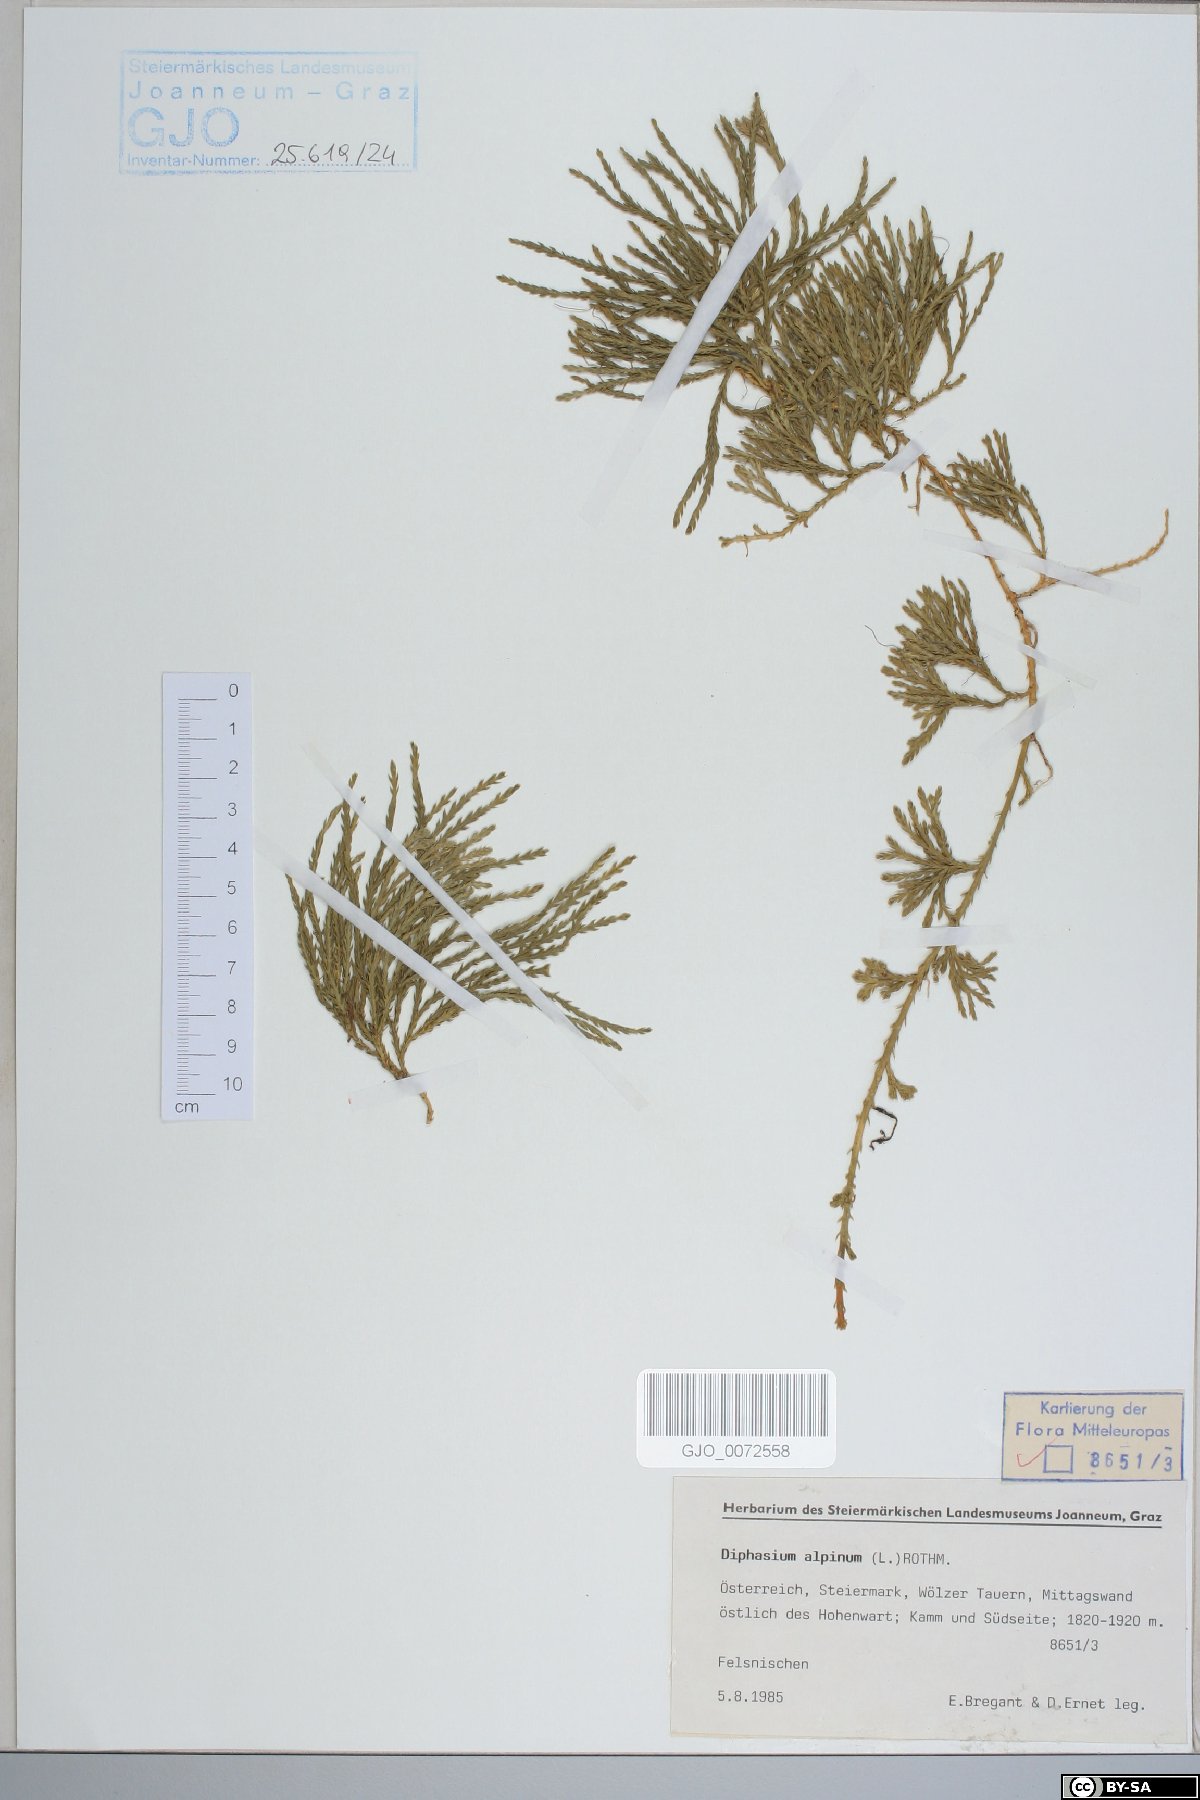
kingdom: Plantae
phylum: Tracheophyta
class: Lycopodiopsida
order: Lycopodiales
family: Lycopodiaceae
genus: Diphasiastrum
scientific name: Diphasiastrum alpinum
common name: Alpine clubmoss
